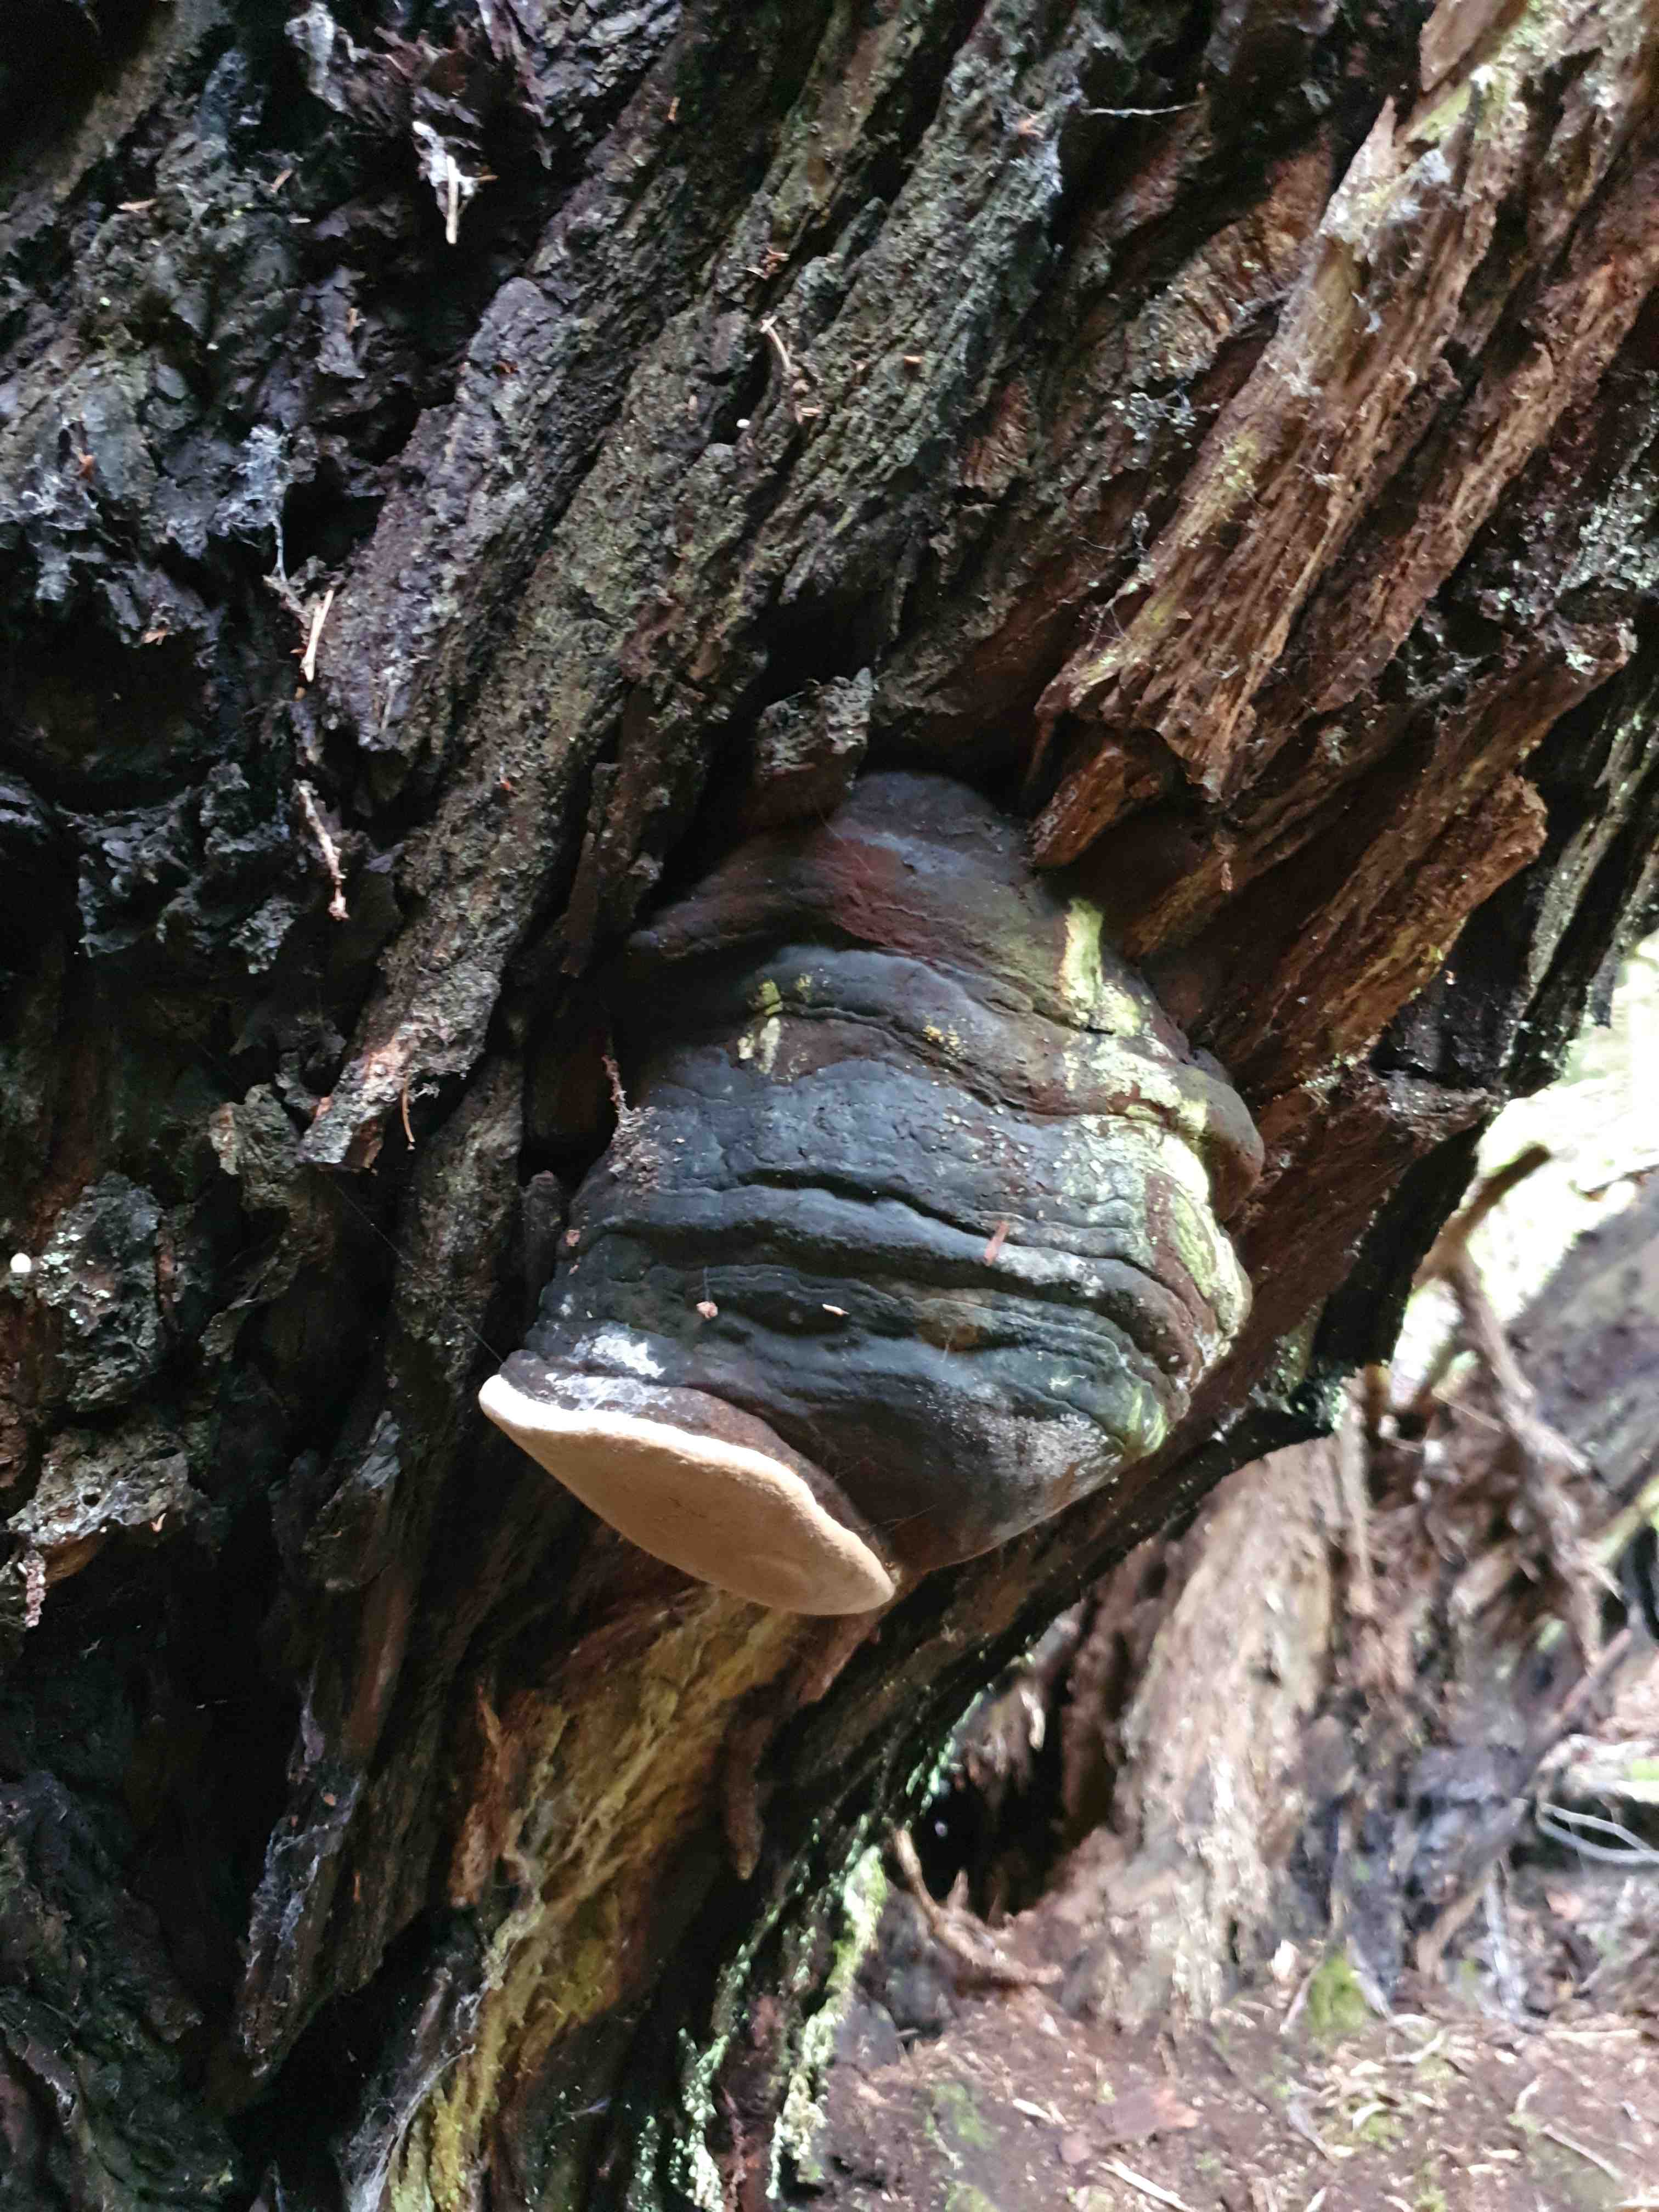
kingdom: Fungi
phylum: Basidiomycota
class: Agaricomycetes
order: Hymenochaetales
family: Hymenochaetaceae
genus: Phellinus
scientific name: Phellinus igniarius
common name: almindelig ildporesvamp
